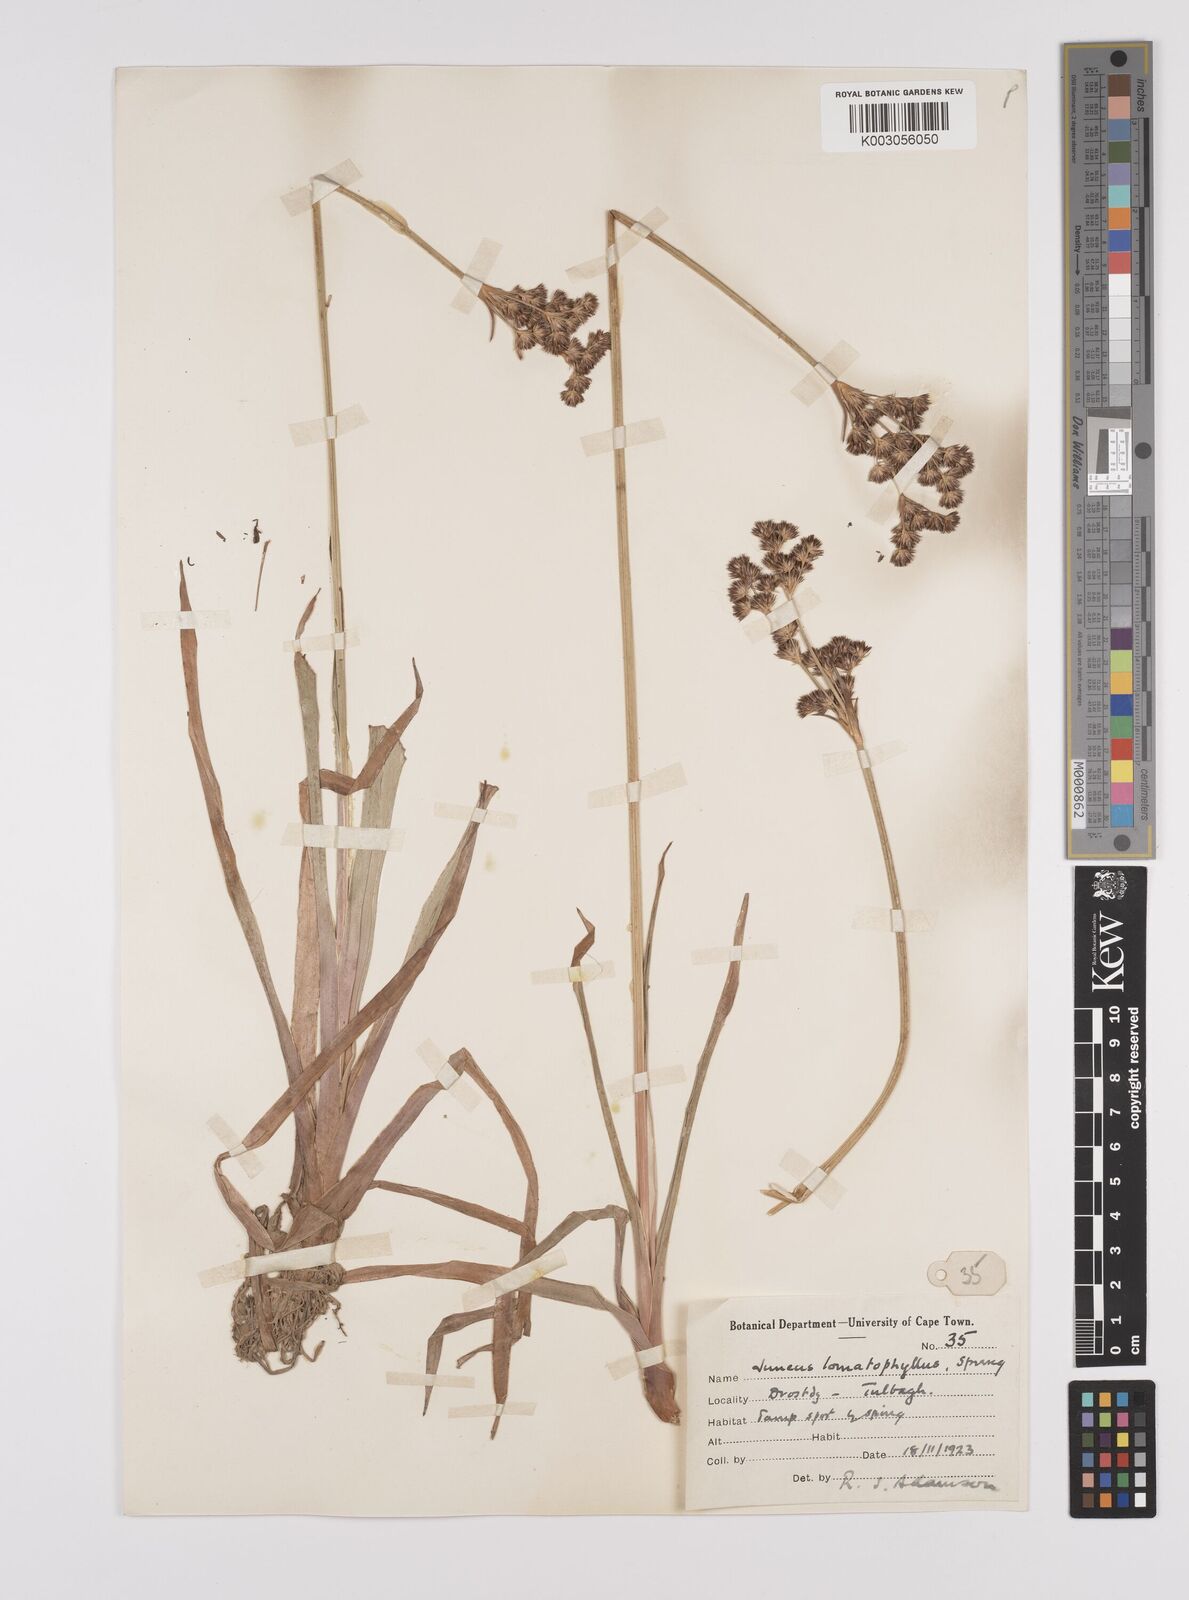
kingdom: Plantae
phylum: Tracheophyta
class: Liliopsida
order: Poales
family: Juncaceae
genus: Juncus
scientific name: Juncus lomatophyllus
